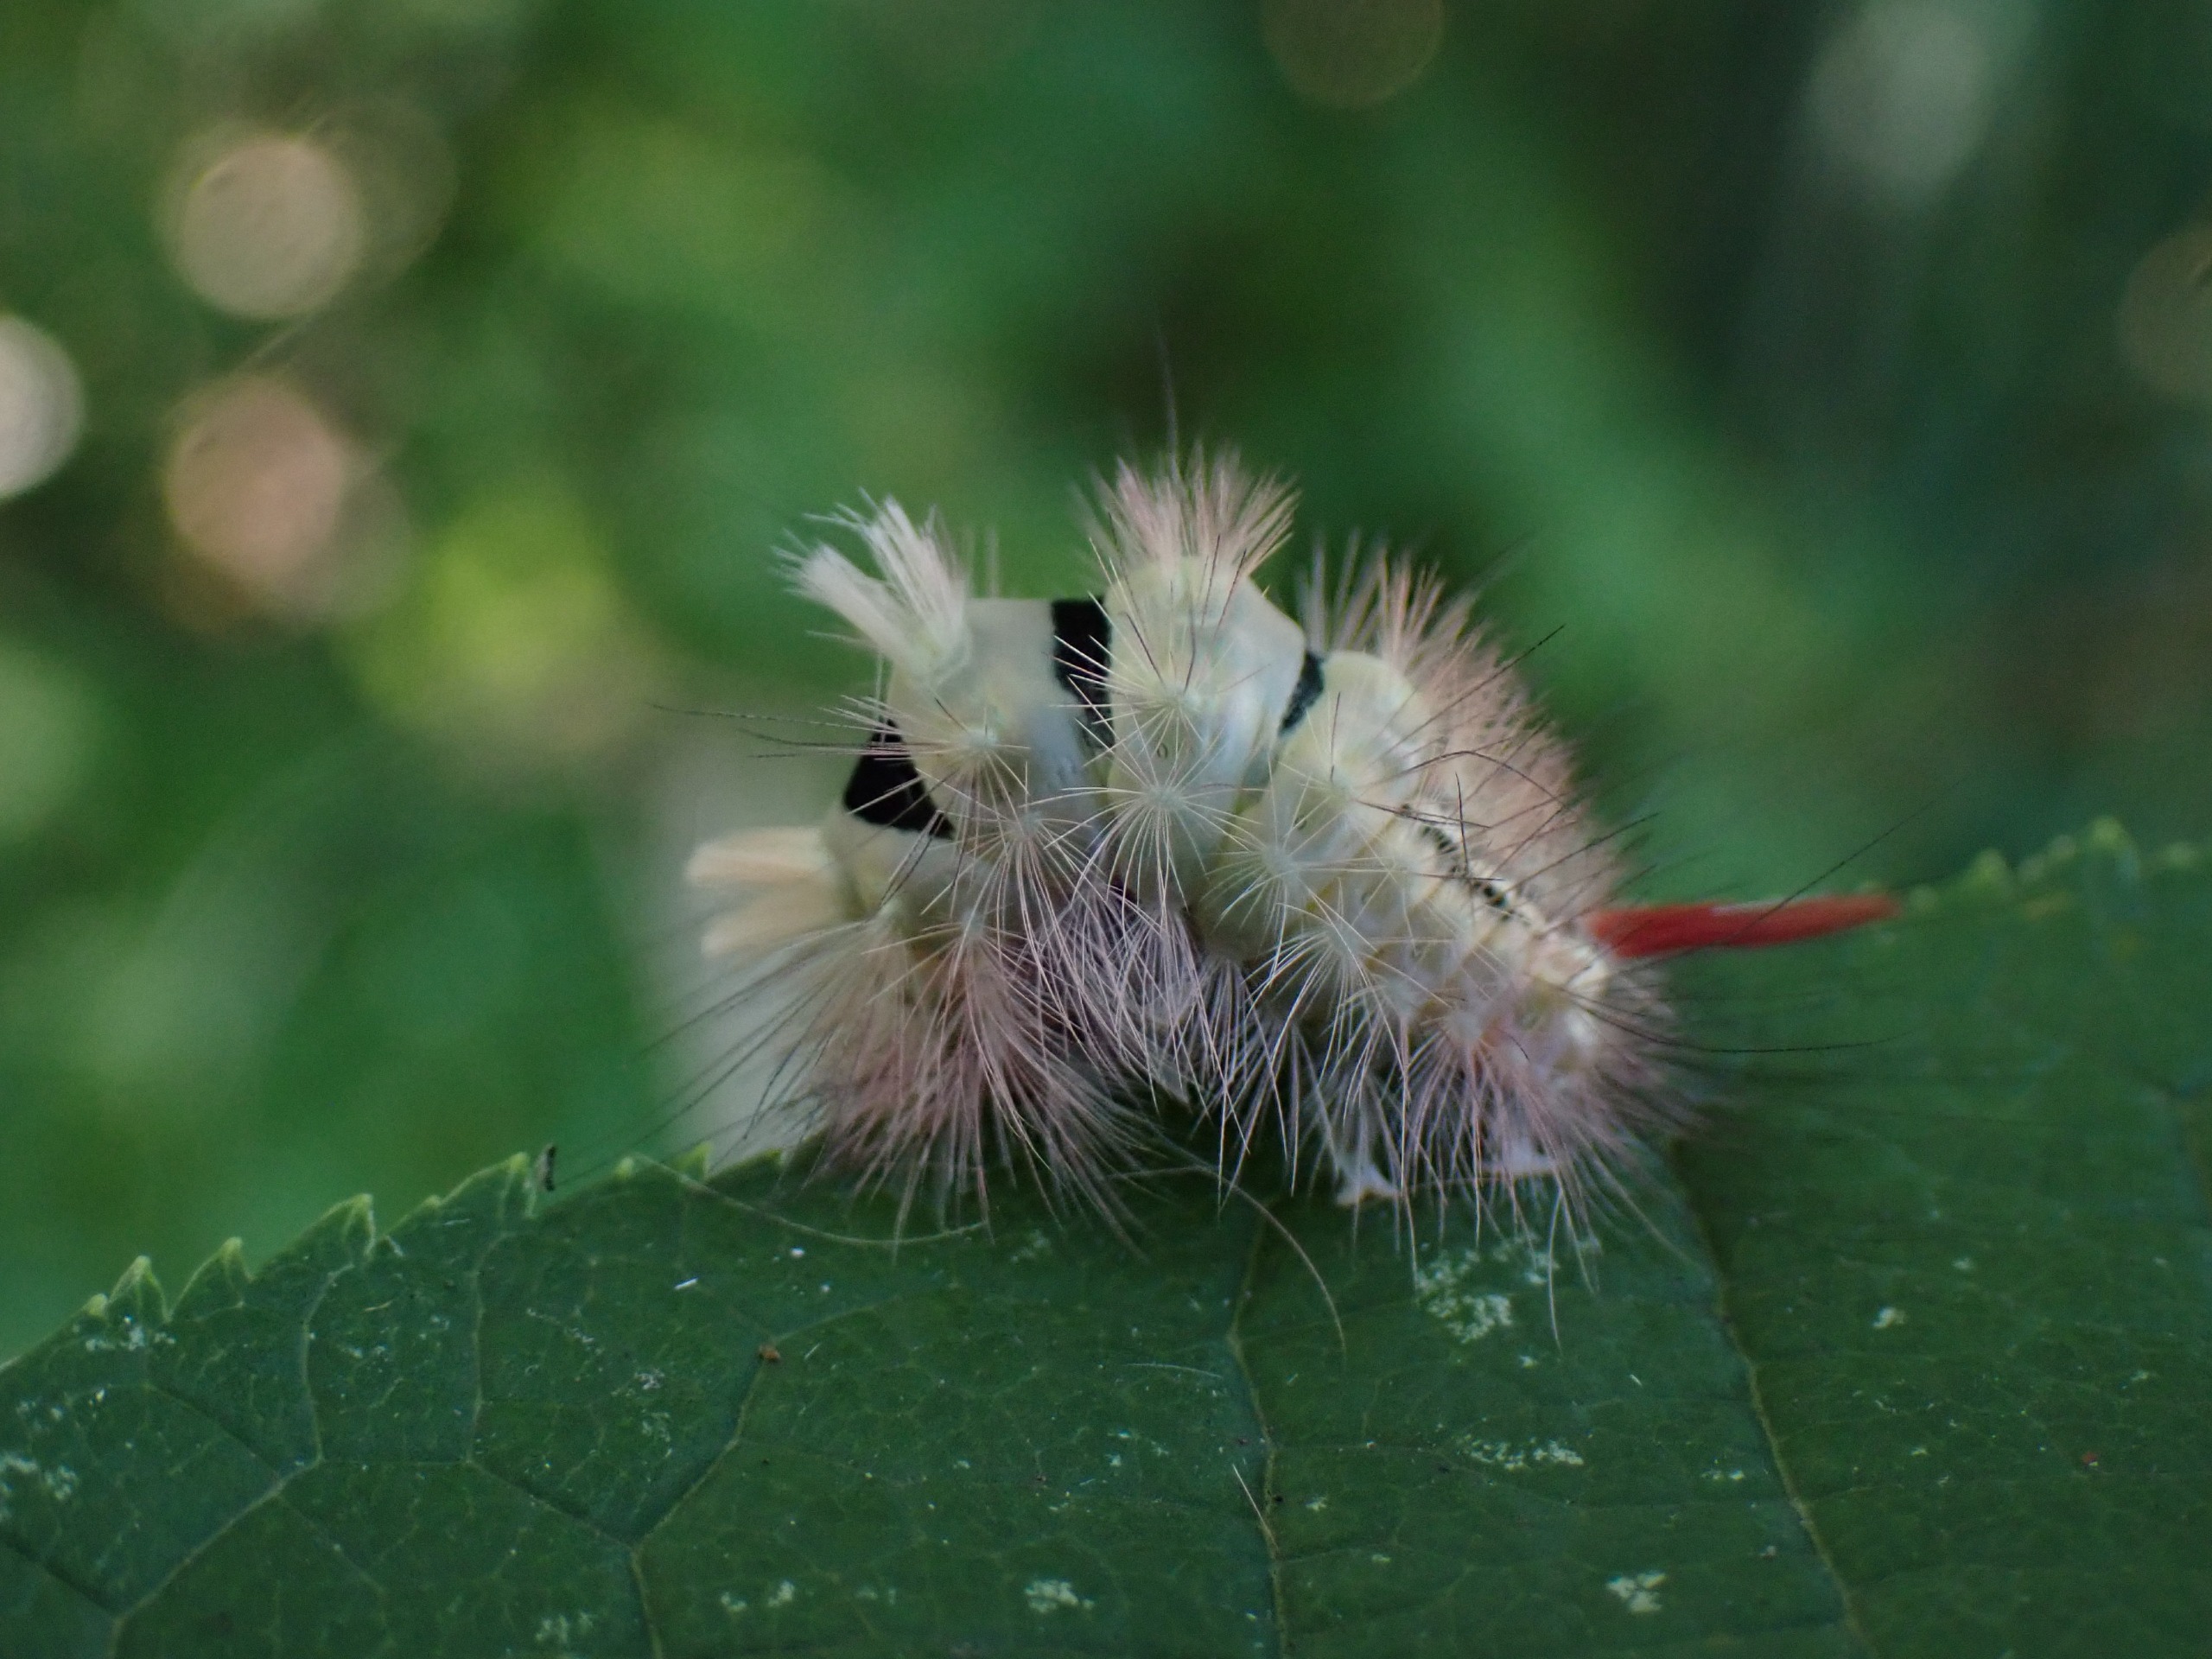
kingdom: Animalia
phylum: Arthropoda
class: Insecta
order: Lepidoptera
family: Erebidae
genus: Calliteara
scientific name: Calliteara pudibunda
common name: Bøgenonne
